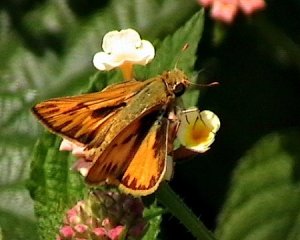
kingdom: Animalia
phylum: Arthropoda
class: Insecta
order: Lepidoptera
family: Hesperiidae
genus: Hylephila
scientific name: Hylephila phyleus
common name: Fiery Skipper
